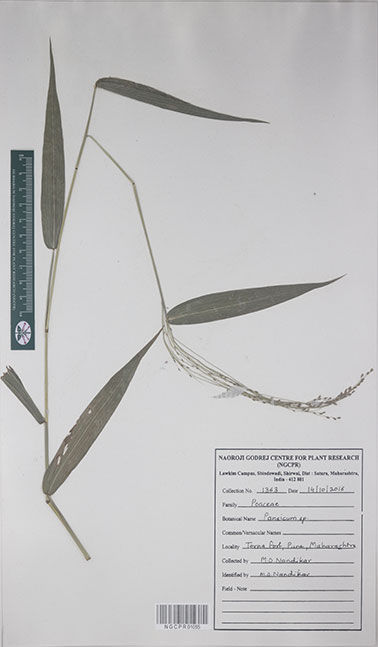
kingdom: Plantae
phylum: Tracheophyta
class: Liliopsida
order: Poales
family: Poaceae
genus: Panicum
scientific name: Panicum
